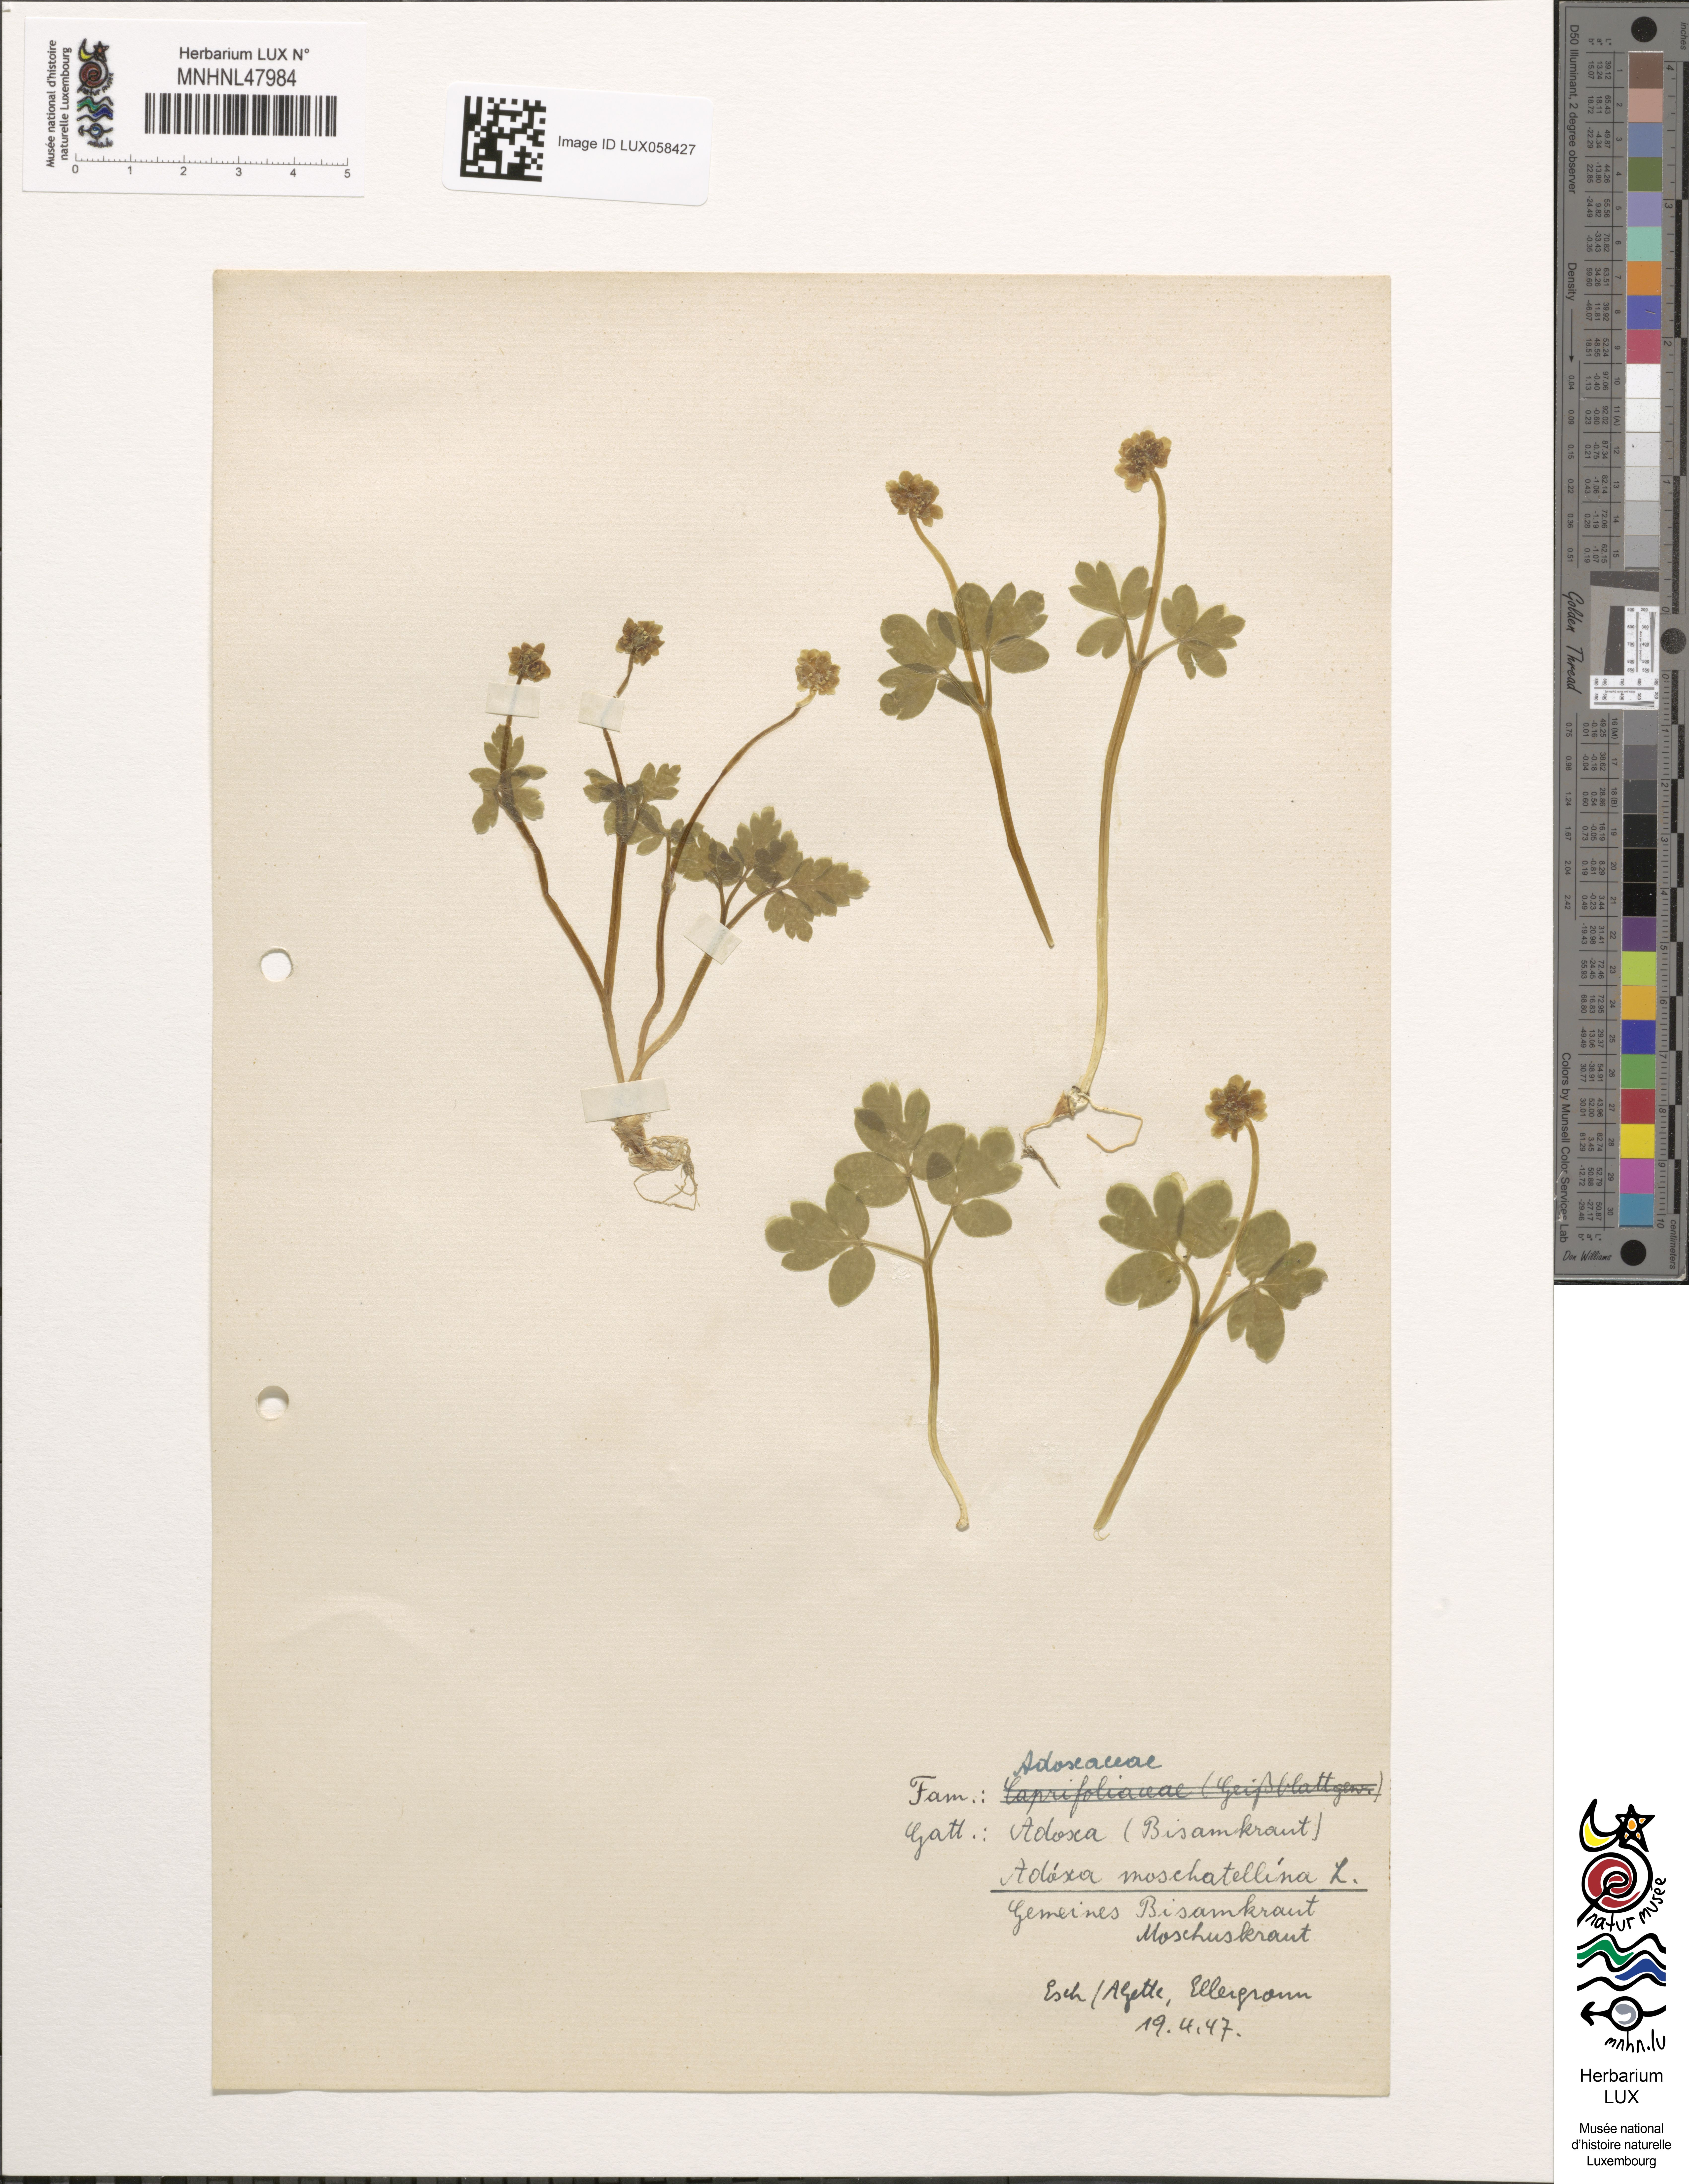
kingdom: Plantae
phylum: Tracheophyta
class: Magnoliopsida
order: Dipsacales
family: Viburnaceae
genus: Adoxa
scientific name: Adoxa moschatellina
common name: Moschatel
